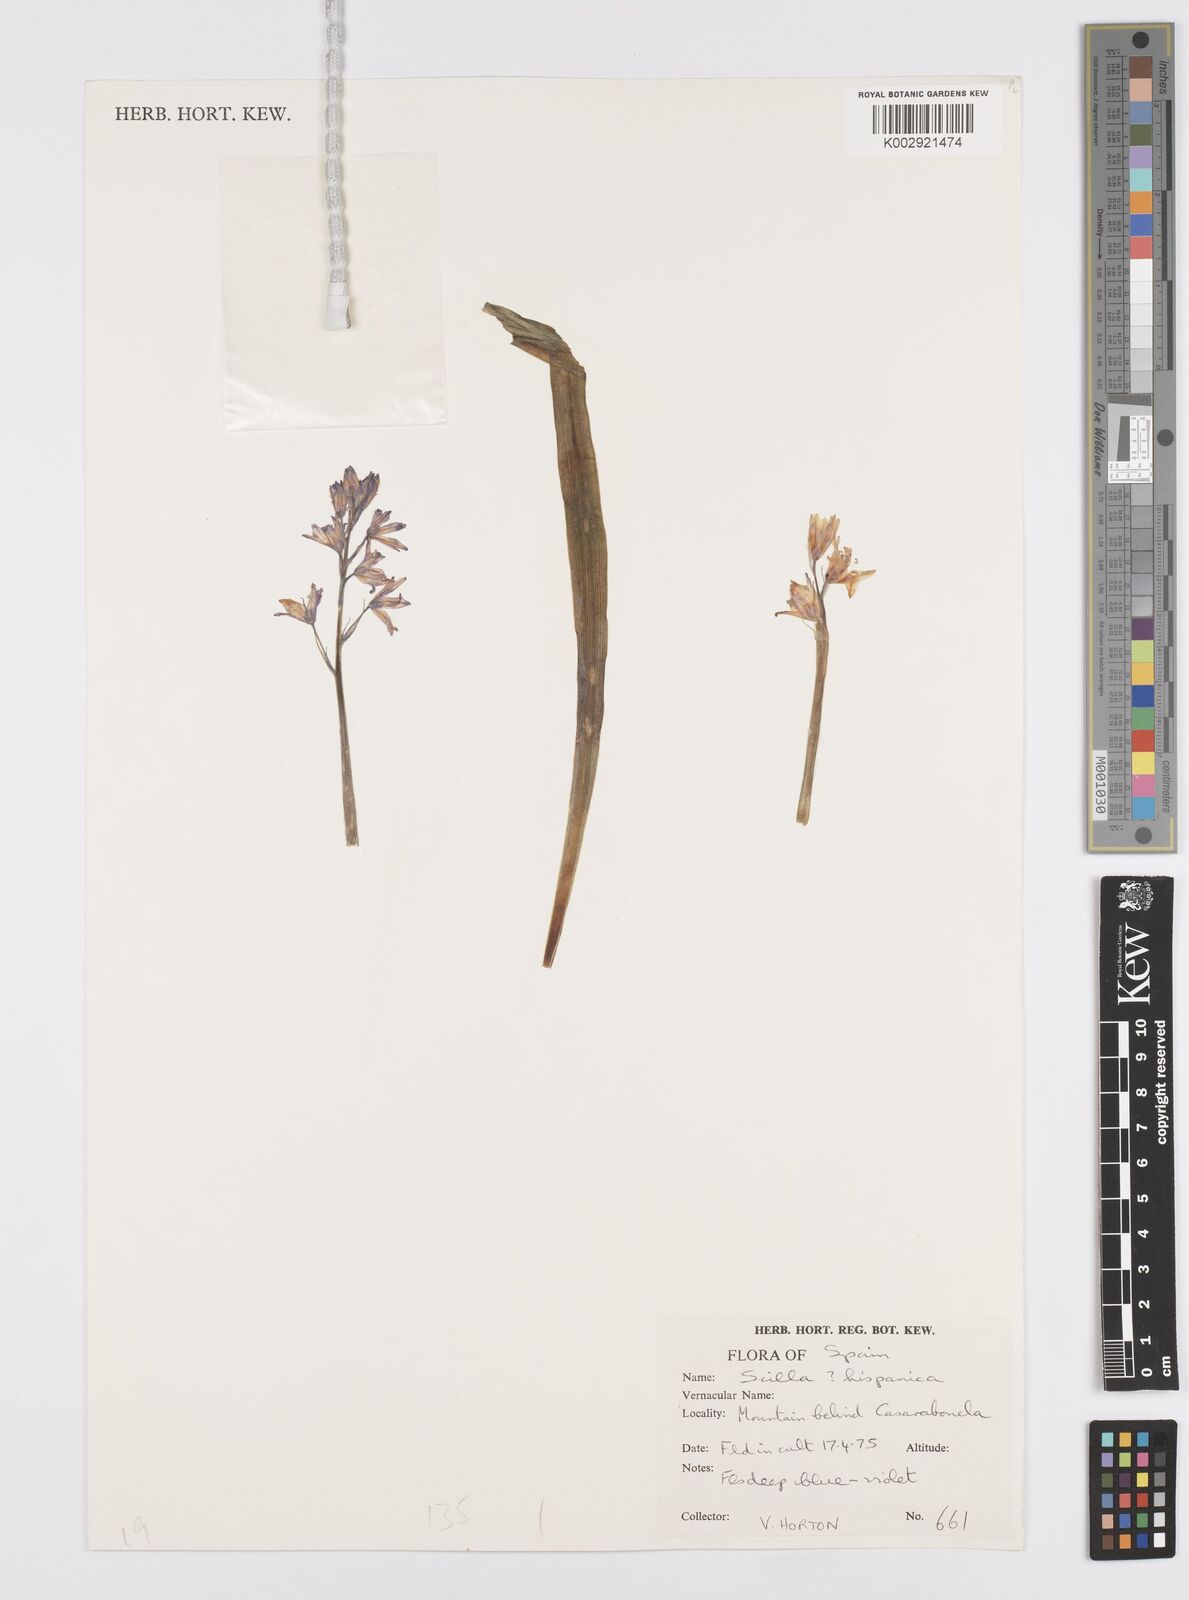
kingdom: Plantae
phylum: Tracheophyta
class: Liliopsida
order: Asparagales
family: Asparagaceae
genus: Hyacinthoides
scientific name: Hyacinthoides hispanica
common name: Spanish bluebell
